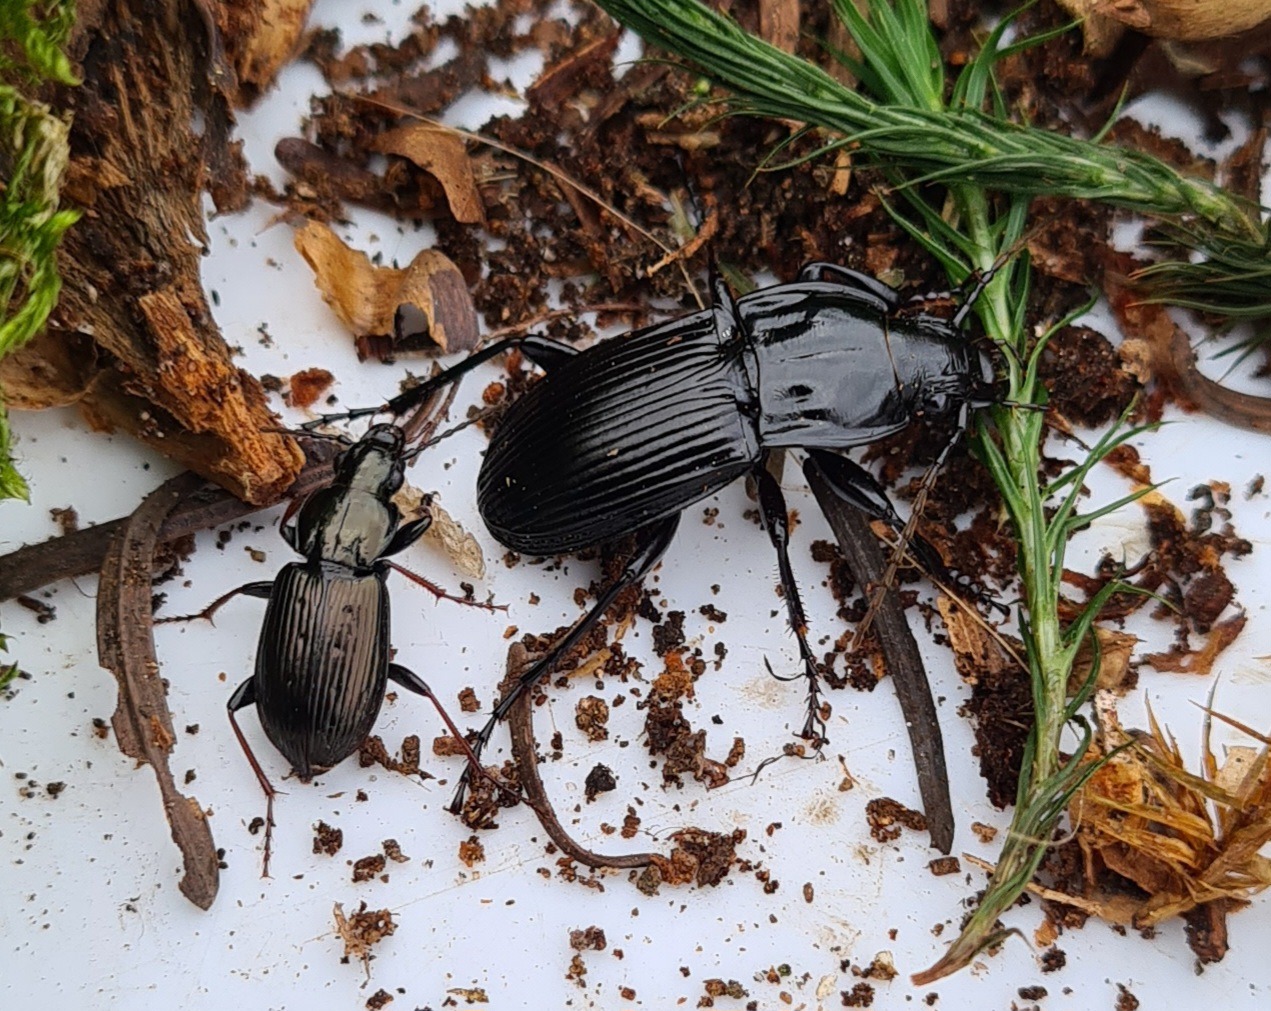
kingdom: Animalia
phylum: Arthropoda
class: Insecta
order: Coleoptera
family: Carabidae
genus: Pterostichus
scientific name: Pterostichus oblongopunctatus
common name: Bronzejordløber
